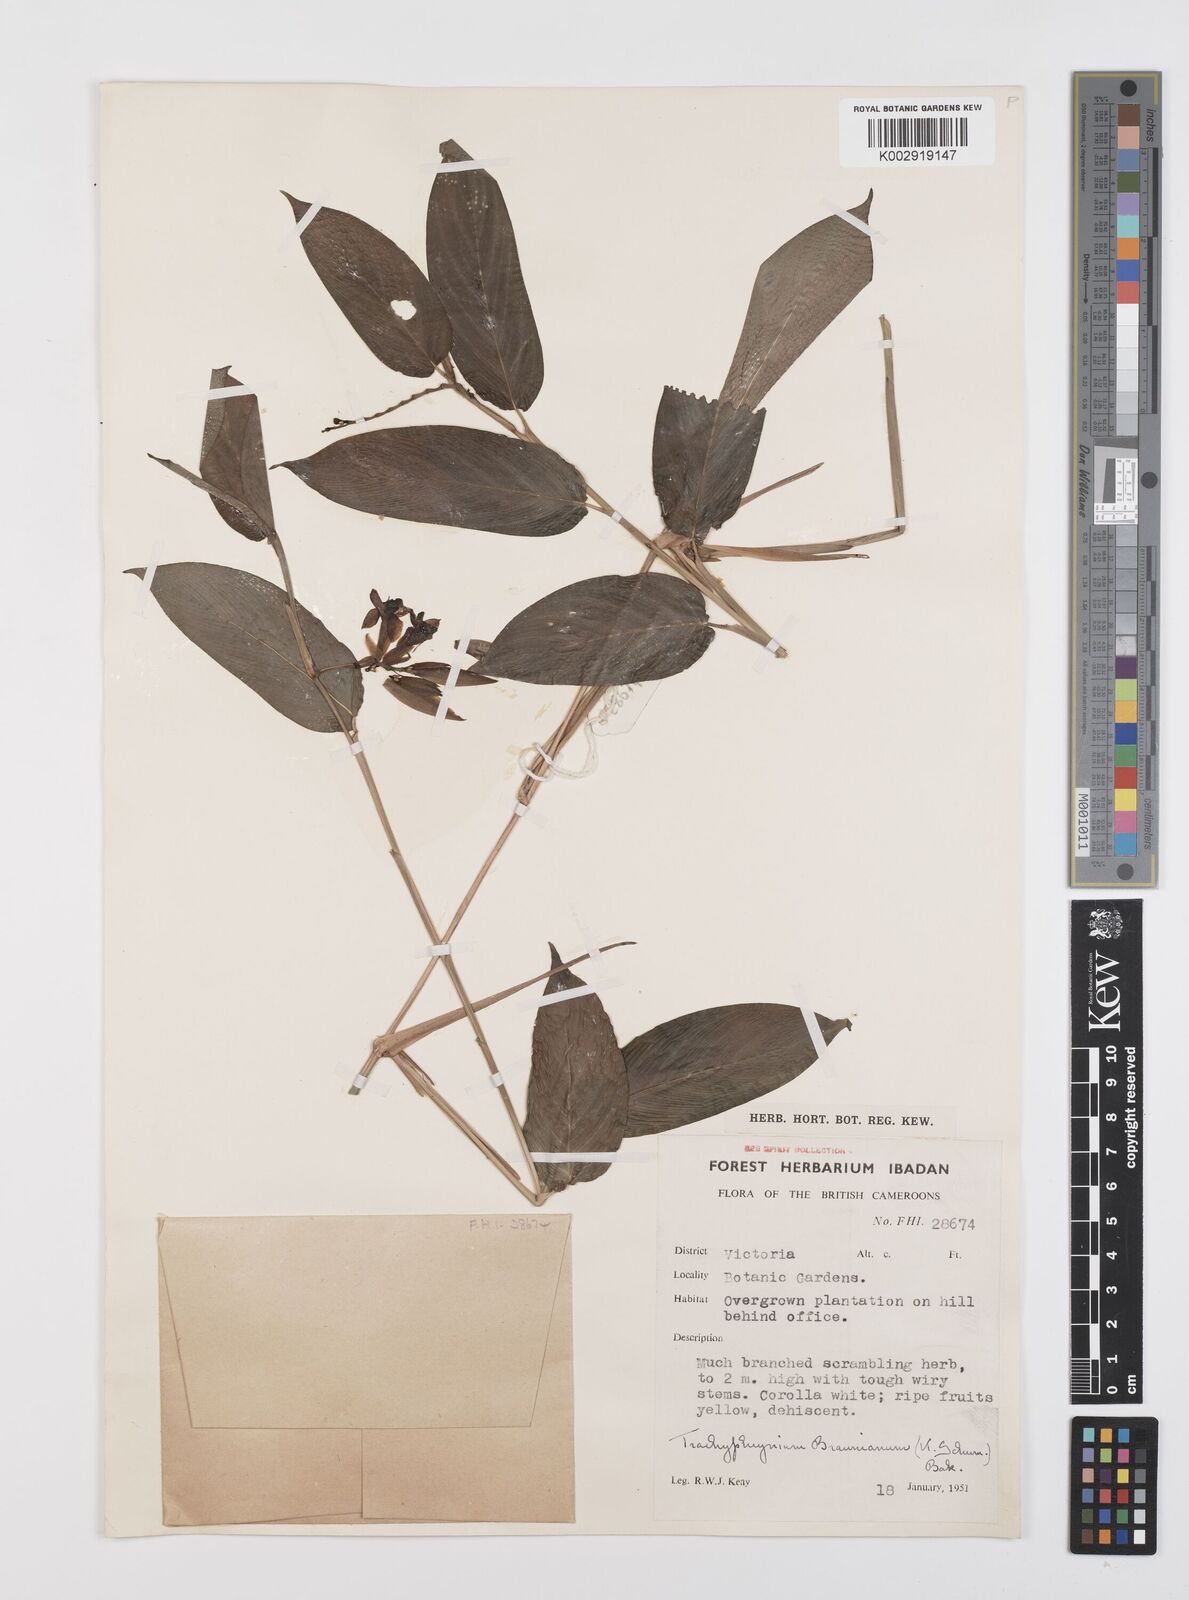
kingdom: Plantae
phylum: Tracheophyta
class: Liliopsida
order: Zingiberales
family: Marantaceae
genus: Trachyphrynium
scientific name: Trachyphrynium braunianum
